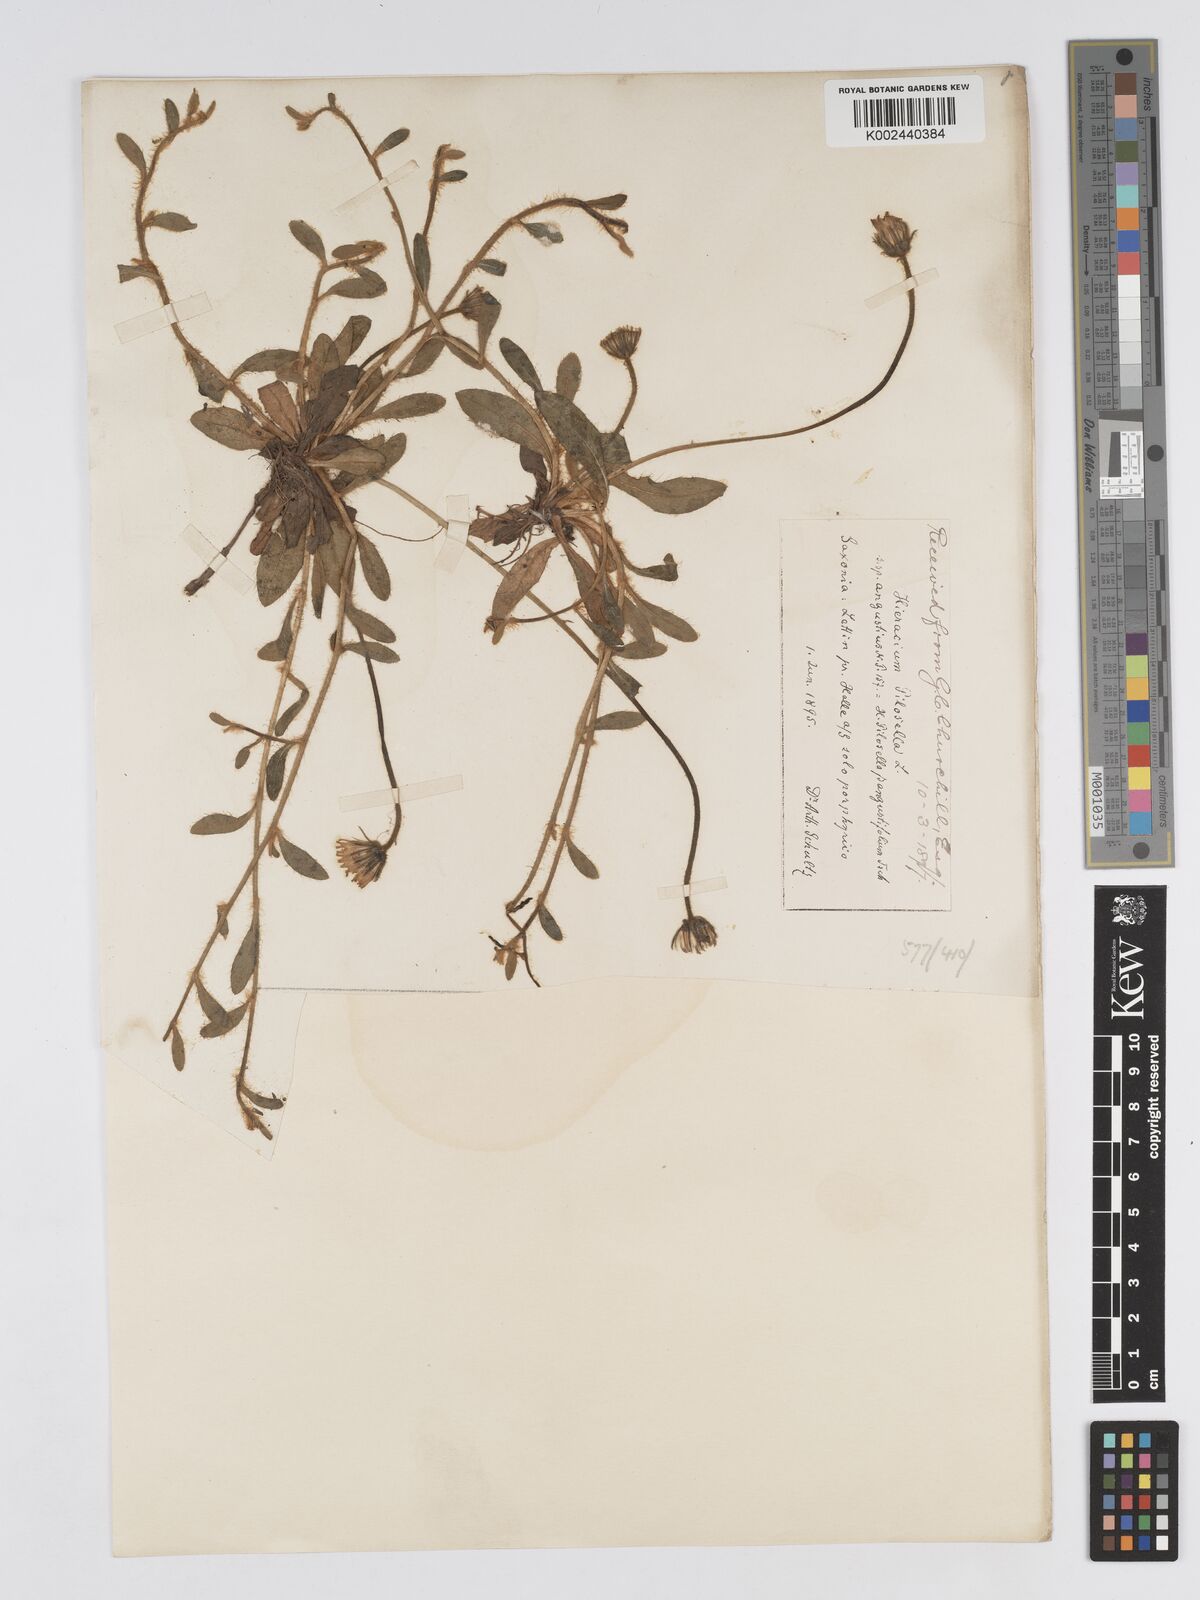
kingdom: Plantae
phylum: Tracheophyta
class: Magnoliopsida
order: Asterales
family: Asteraceae
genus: Pilosella
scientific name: Pilosella officinarum
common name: Mouse-ear hawkweed
